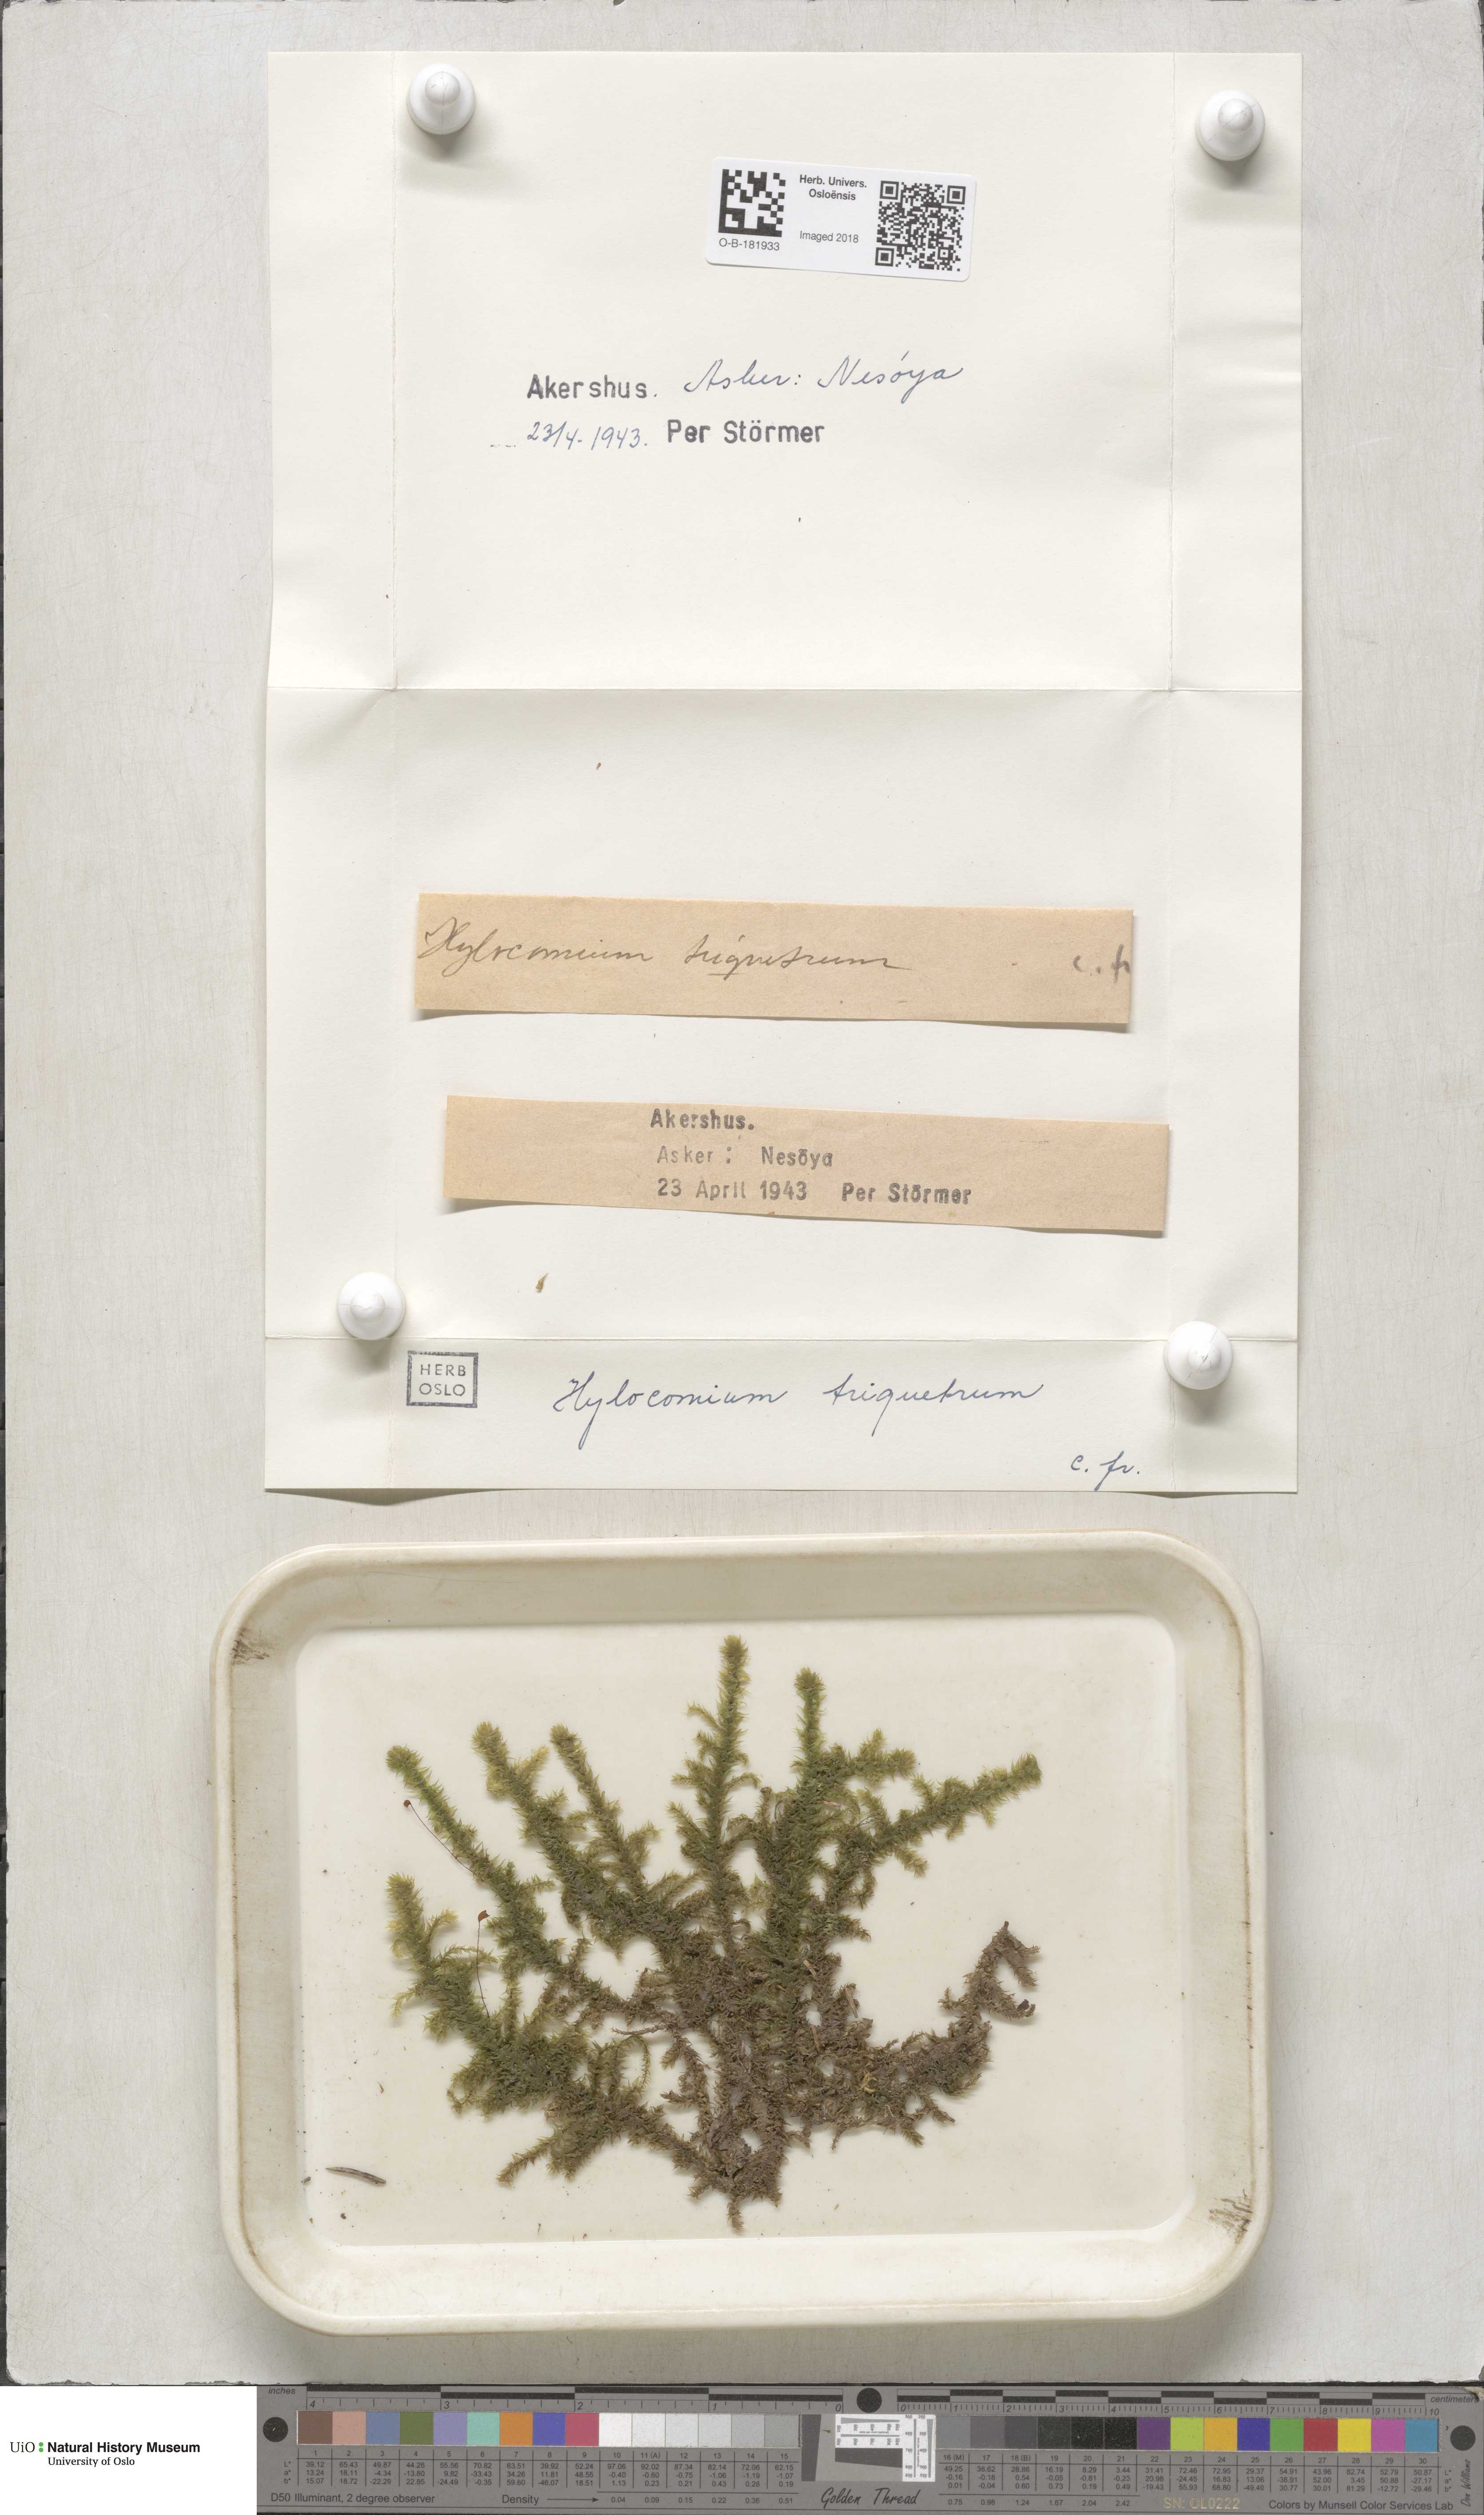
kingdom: Plantae
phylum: Bryophyta
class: Bryopsida
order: Hypnales
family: Hylocomiaceae
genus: Hylocomiadelphus
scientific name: Hylocomiadelphus triquetrus
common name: Rough goose neck moss
